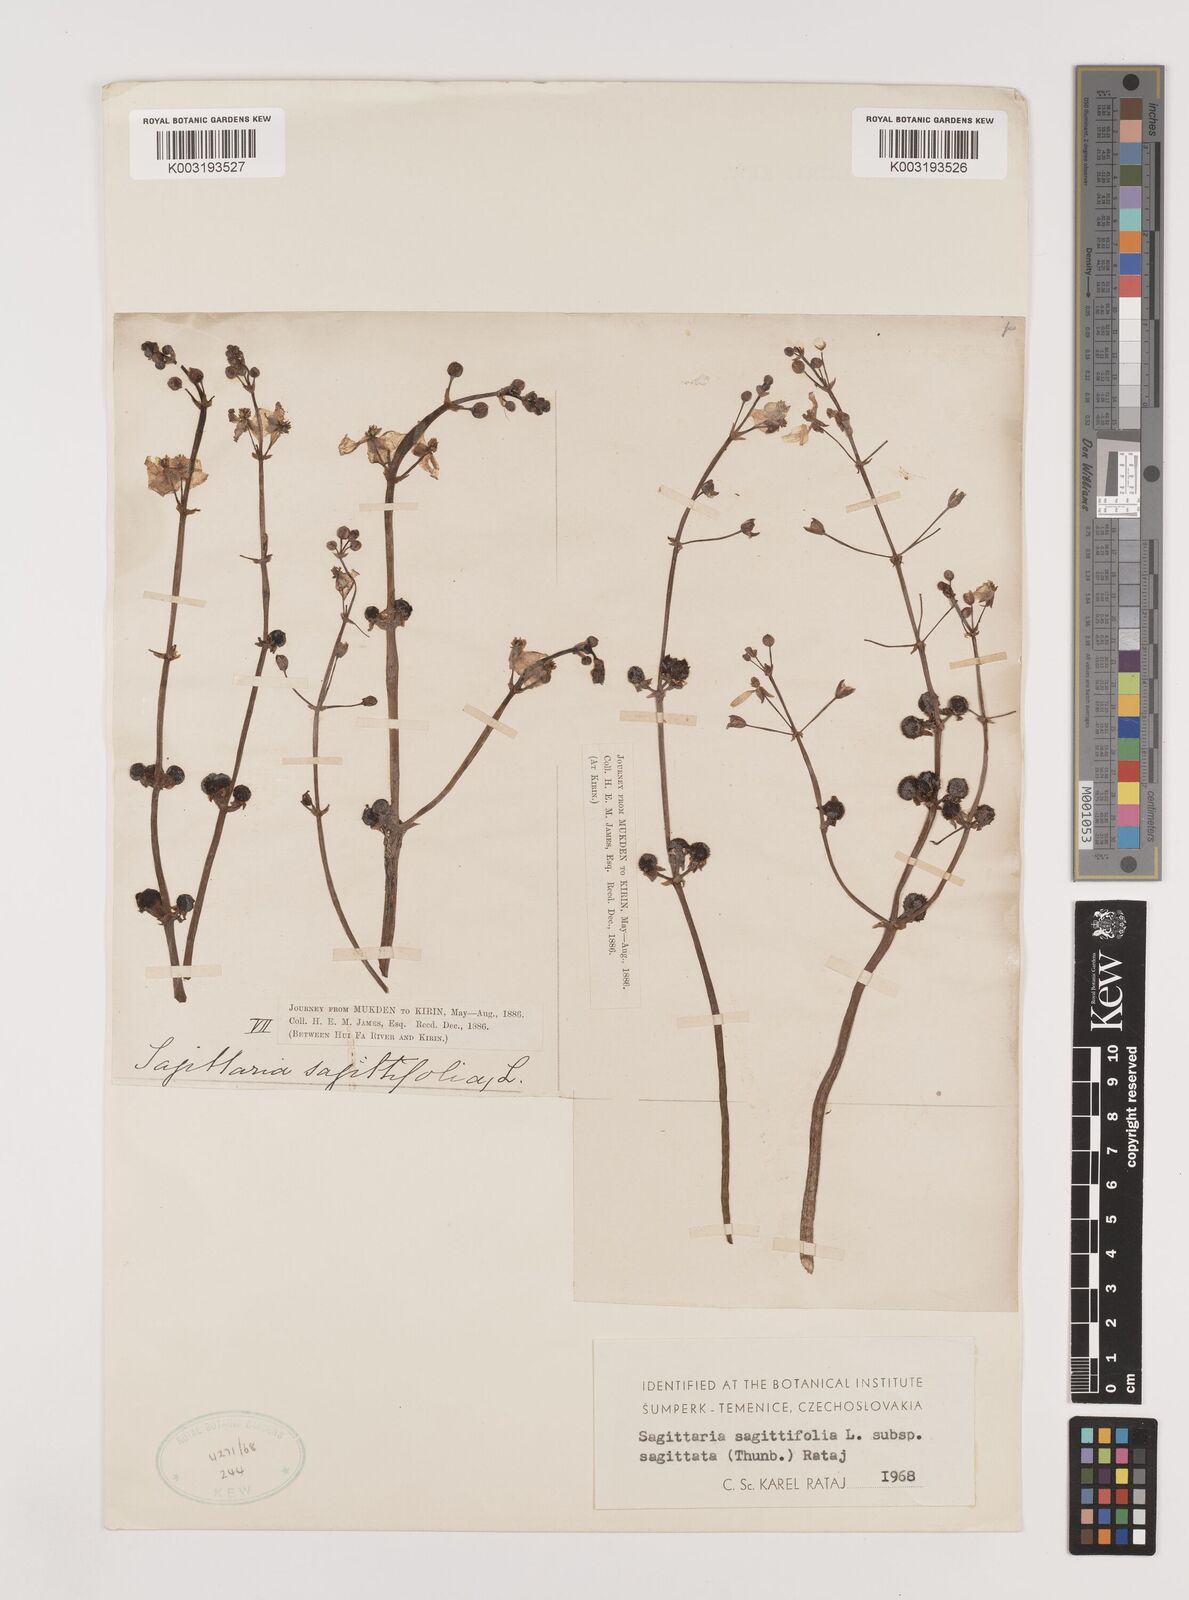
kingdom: Plantae
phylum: Tracheophyta
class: Liliopsida
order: Alismatales
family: Alismataceae
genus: Sagittaria
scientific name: Sagittaria sagittifolia
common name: Arrowhead
